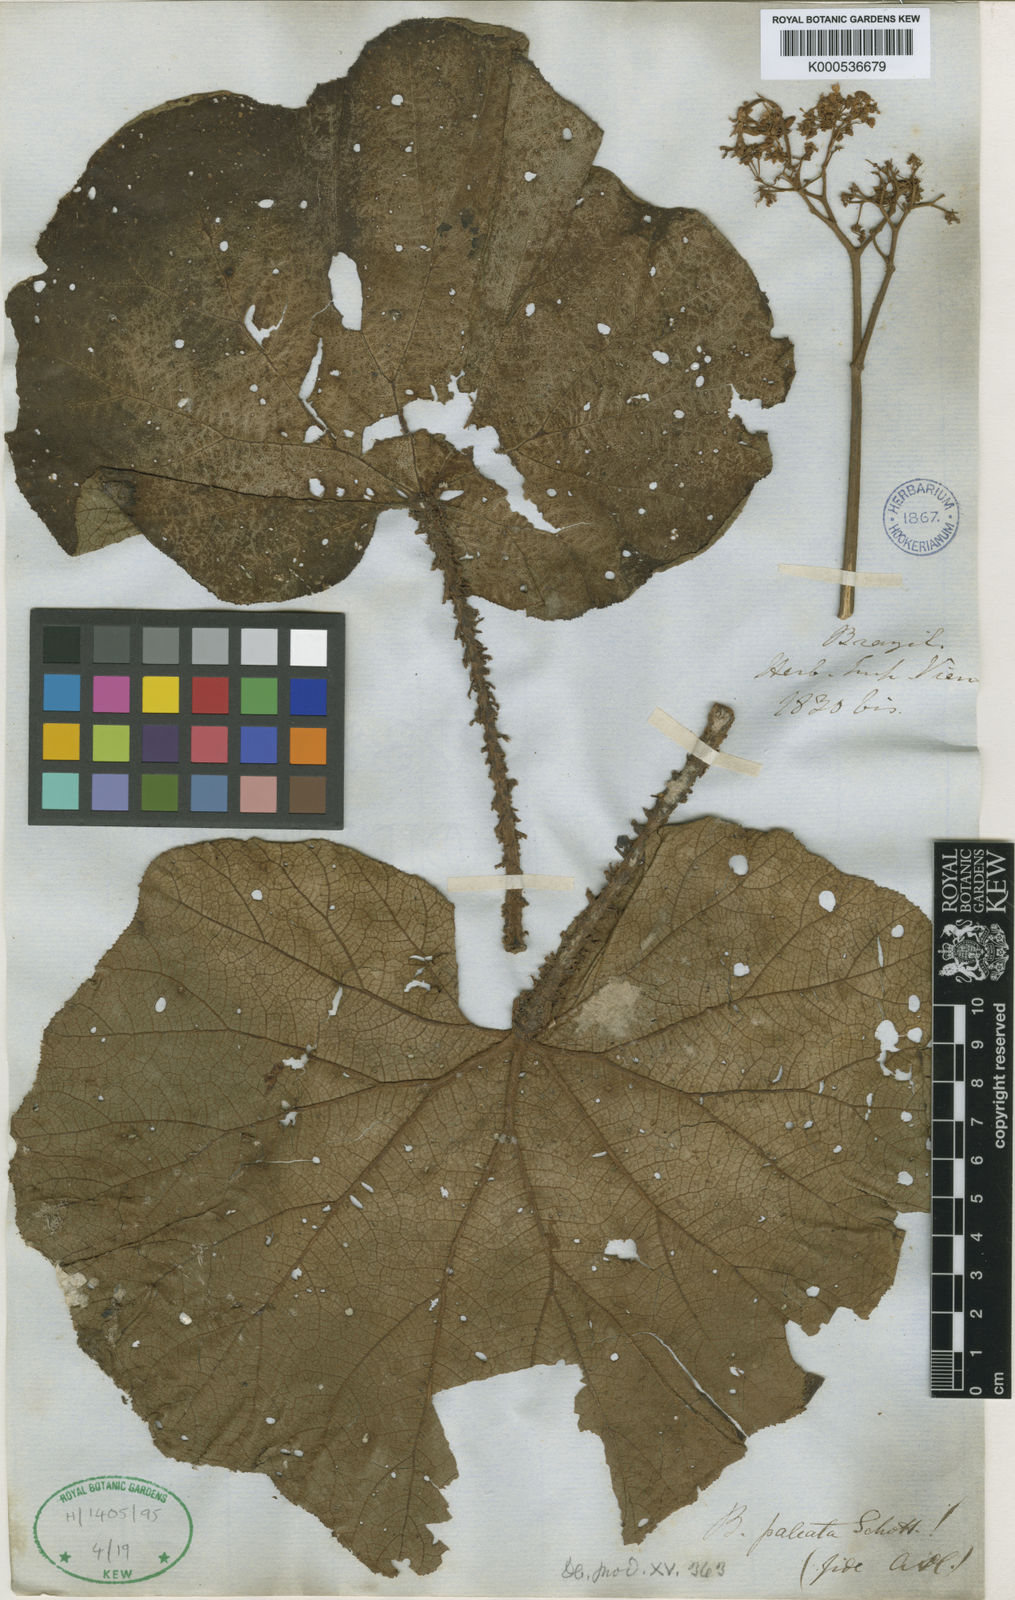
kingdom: Plantae
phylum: Tracheophyta
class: Magnoliopsida
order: Cucurbitales
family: Begoniaceae
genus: Begonia
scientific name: Begonia paleata
